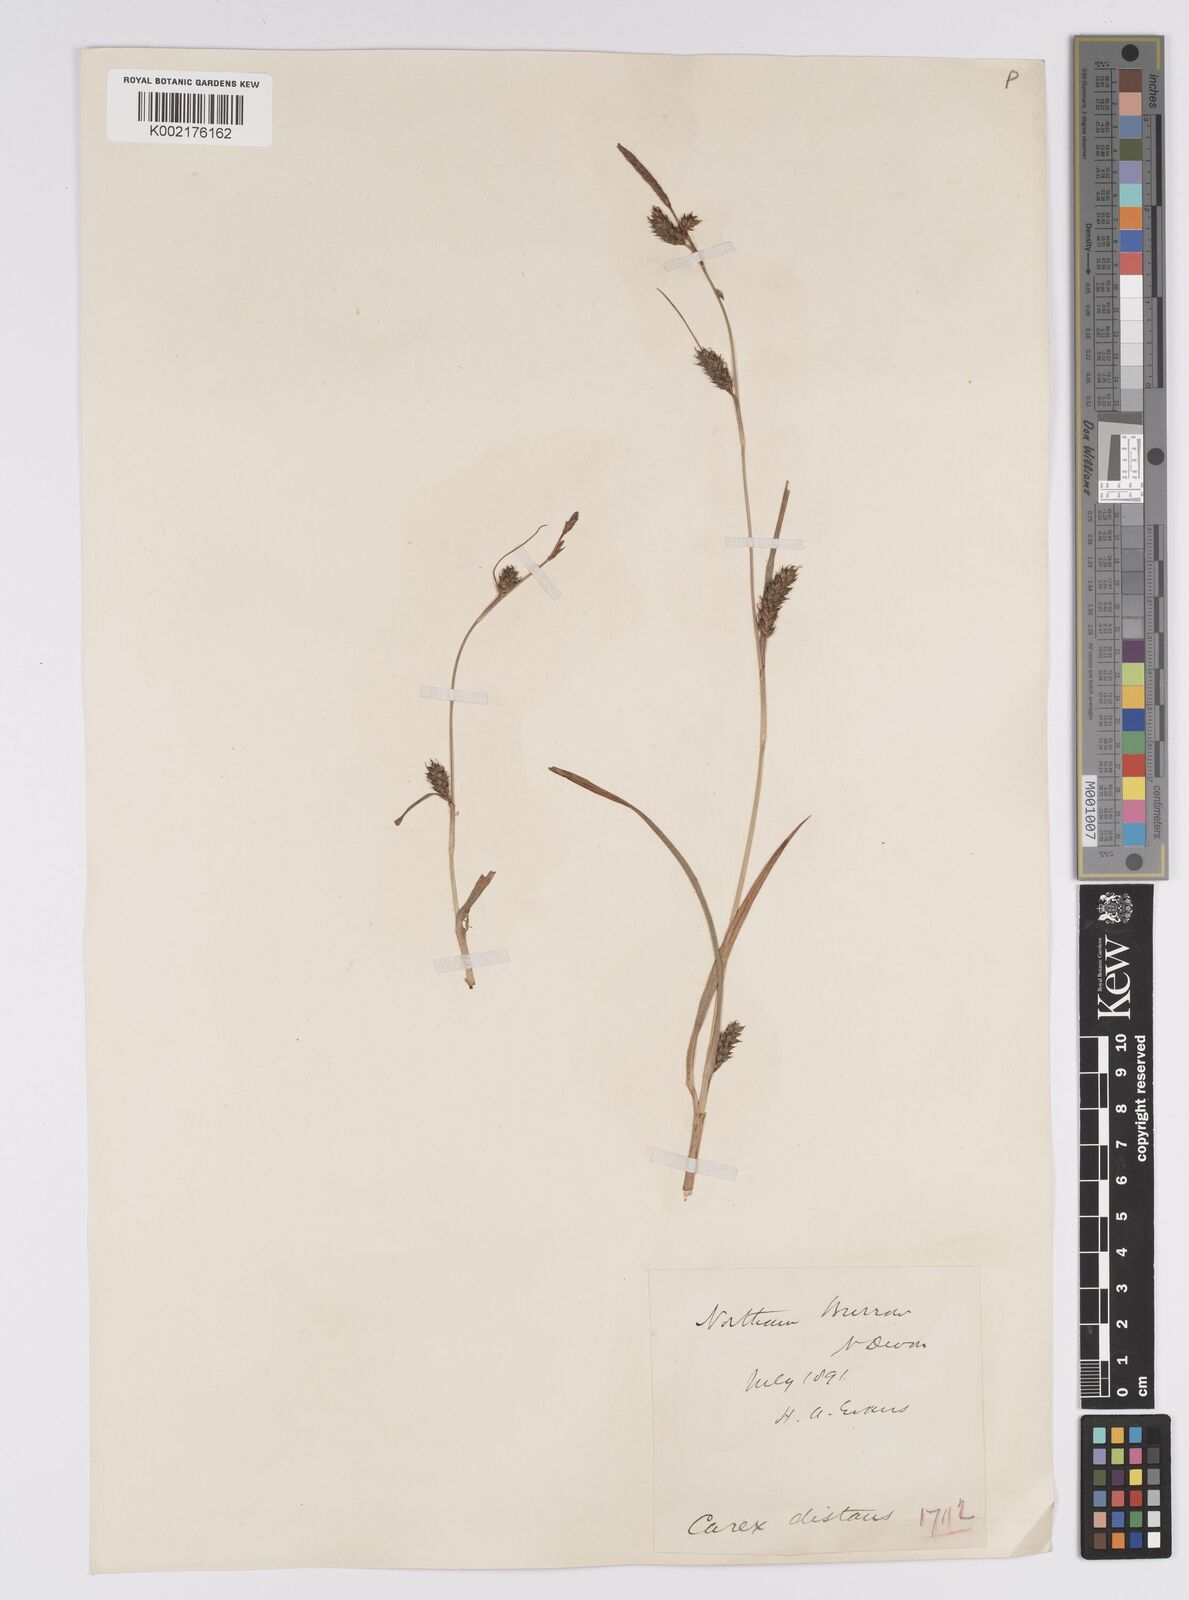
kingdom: Plantae
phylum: Tracheophyta
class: Liliopsida
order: Poales
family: Cyperaceae
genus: Carex
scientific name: Carex distans
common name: Distant sedge
